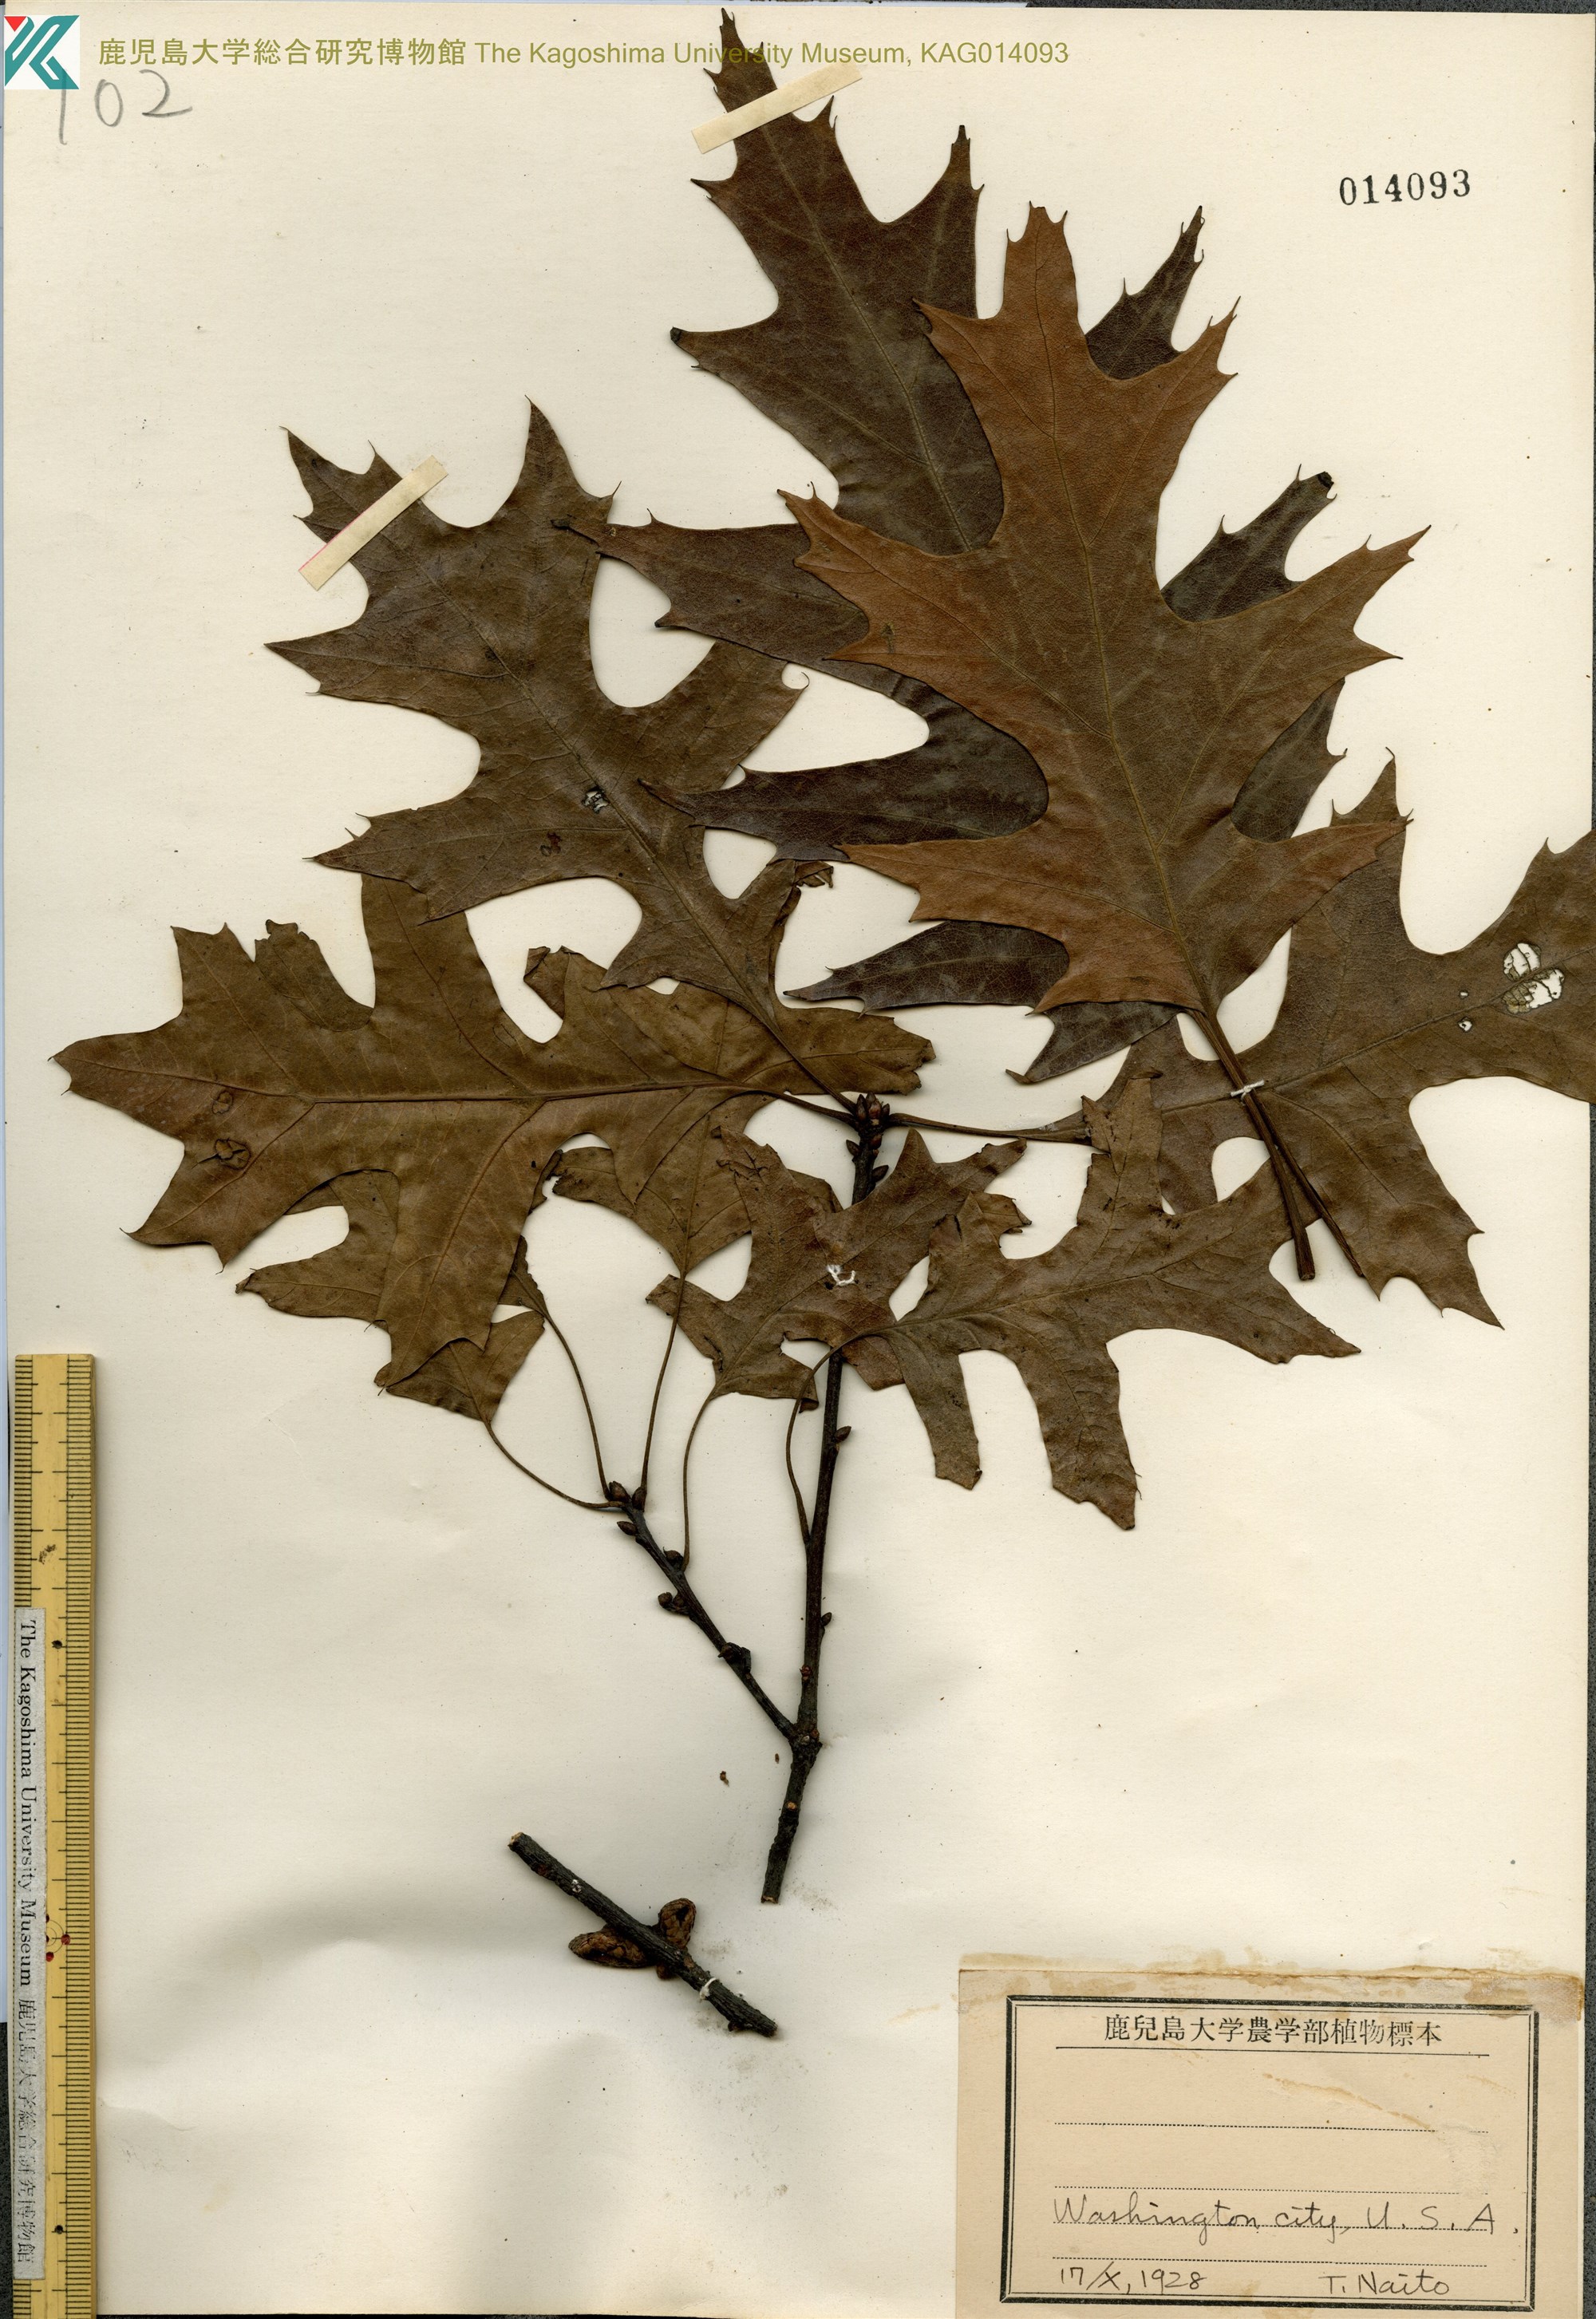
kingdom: Plantae
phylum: Tracheophyta
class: Magnoliopsida
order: Fagales
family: Fagaceae
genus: Quercus
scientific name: Quercus palustris
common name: Pin oak
